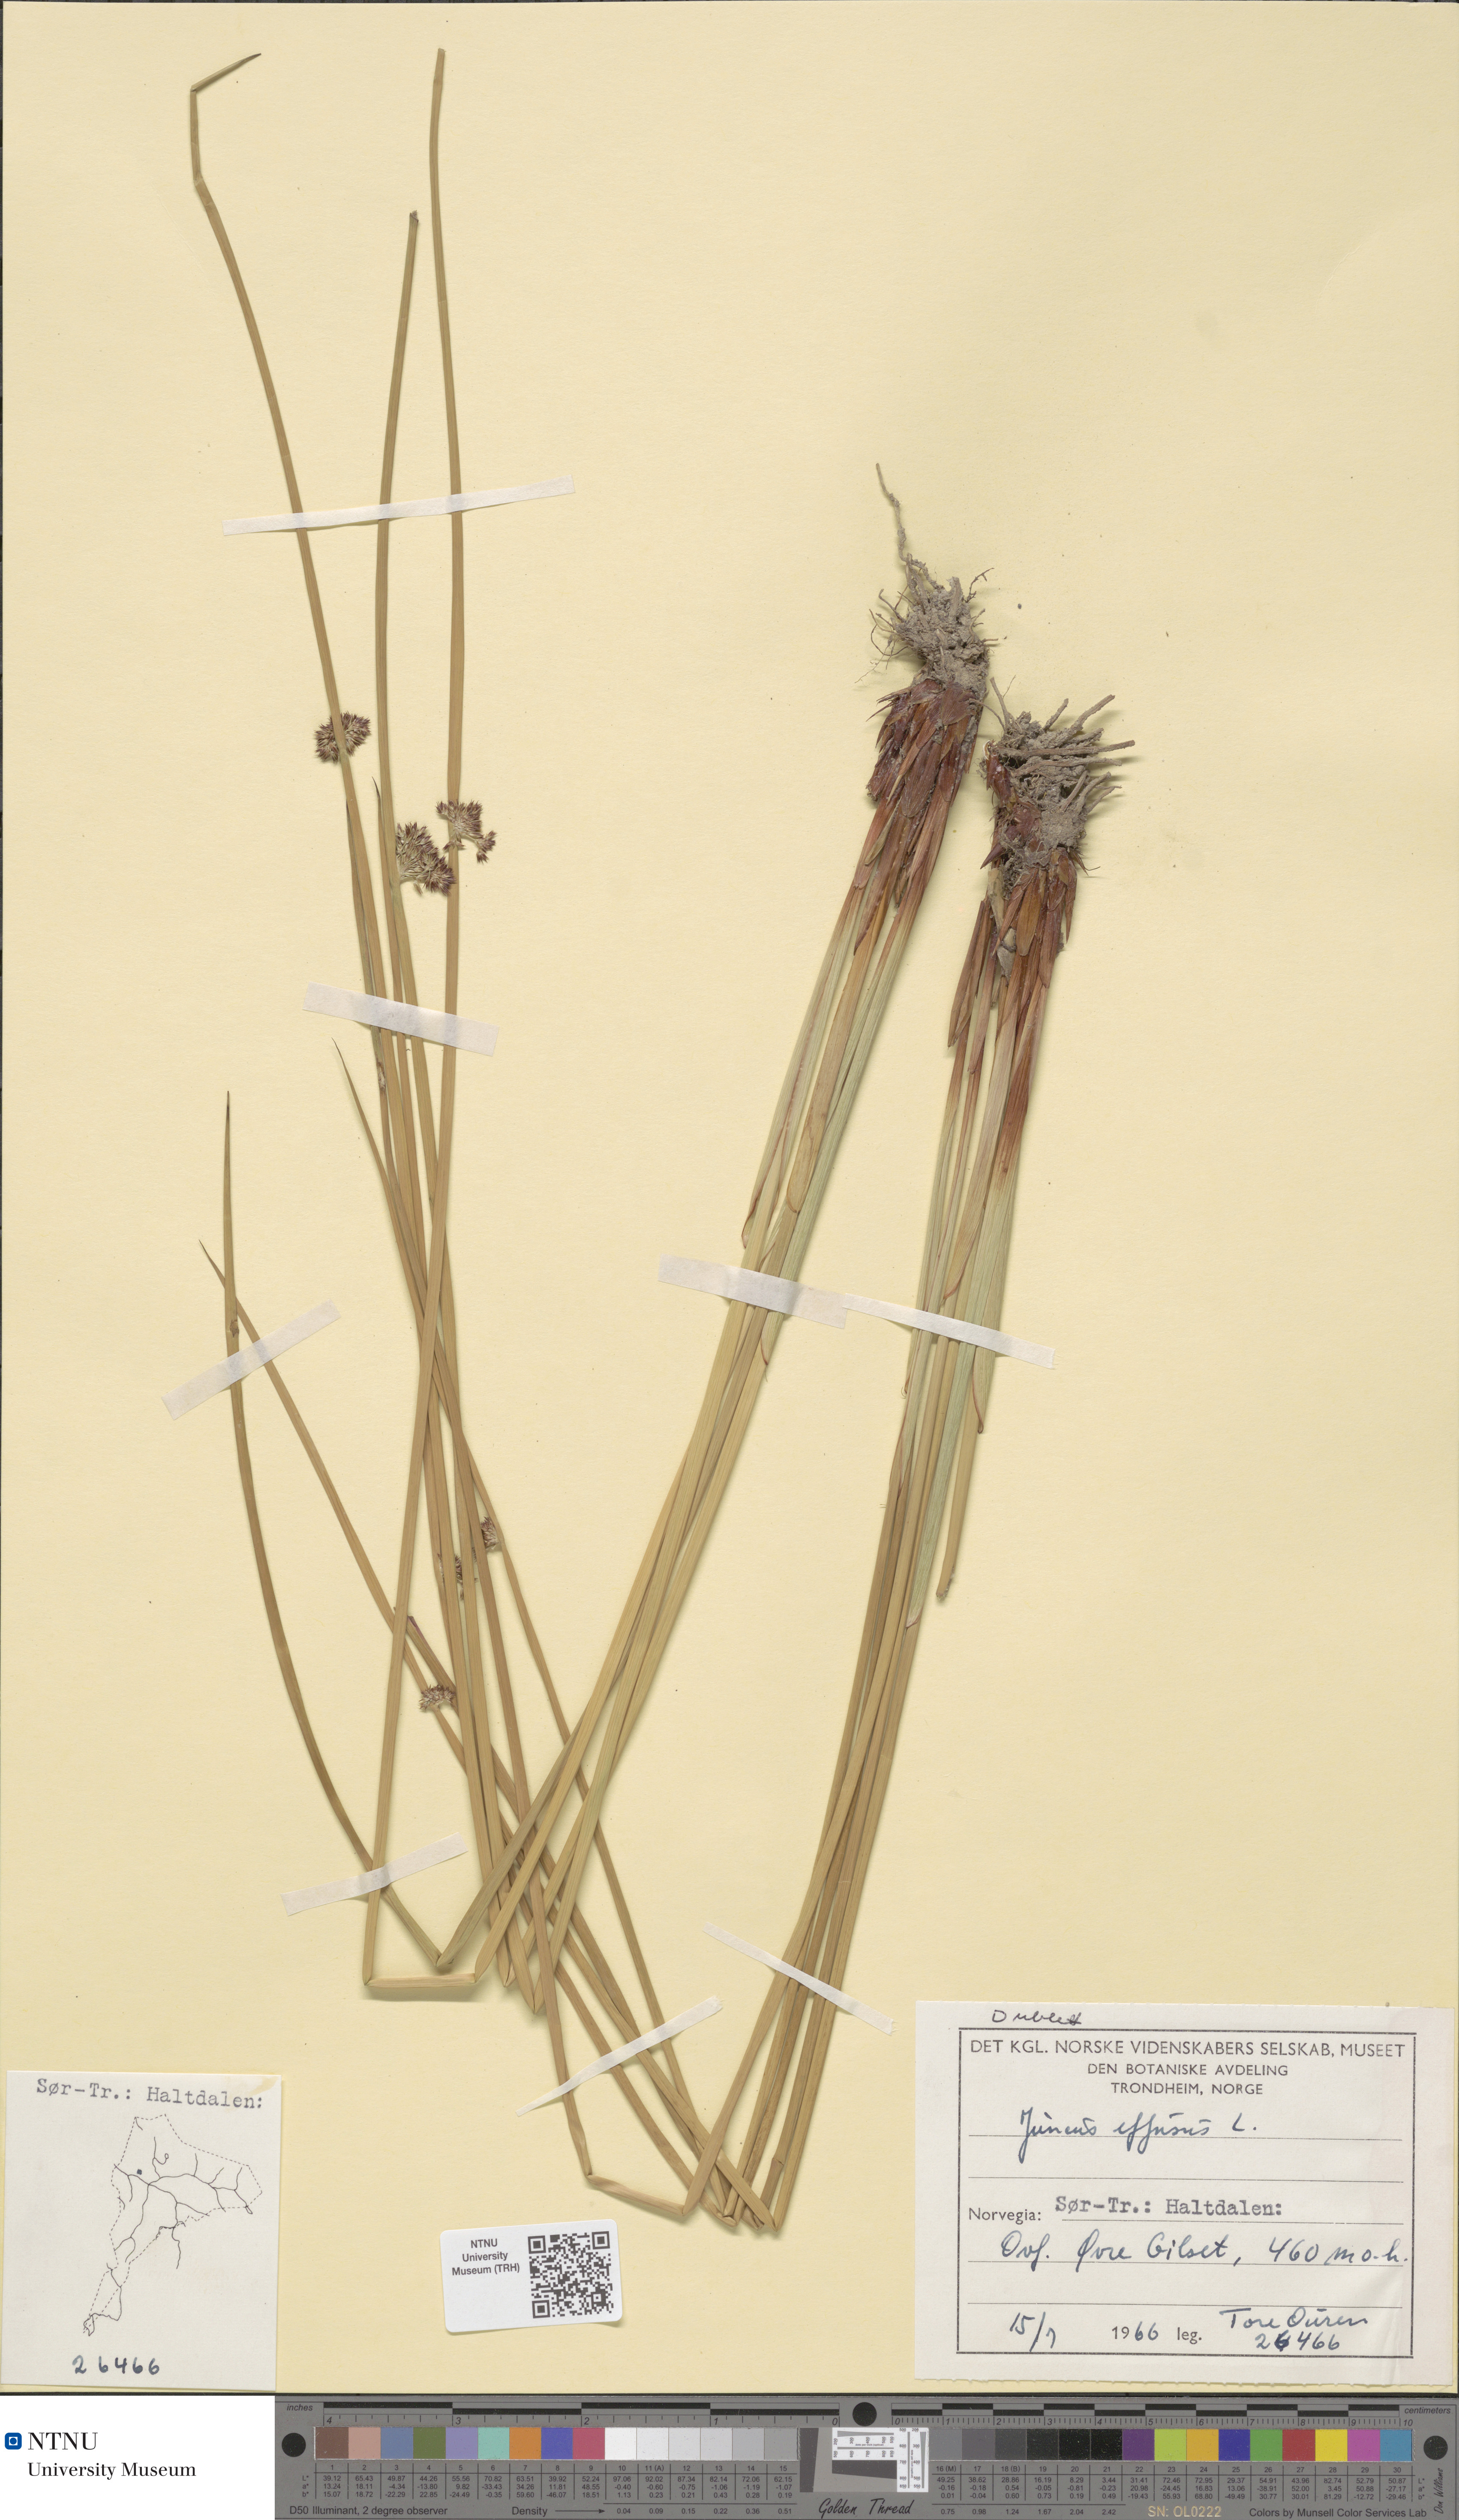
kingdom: Plantae
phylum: Tracheophyta
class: Liliopsida
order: Poales
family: Juncaceae
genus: Juncus
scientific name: Juncus effusus
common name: Soft rush
